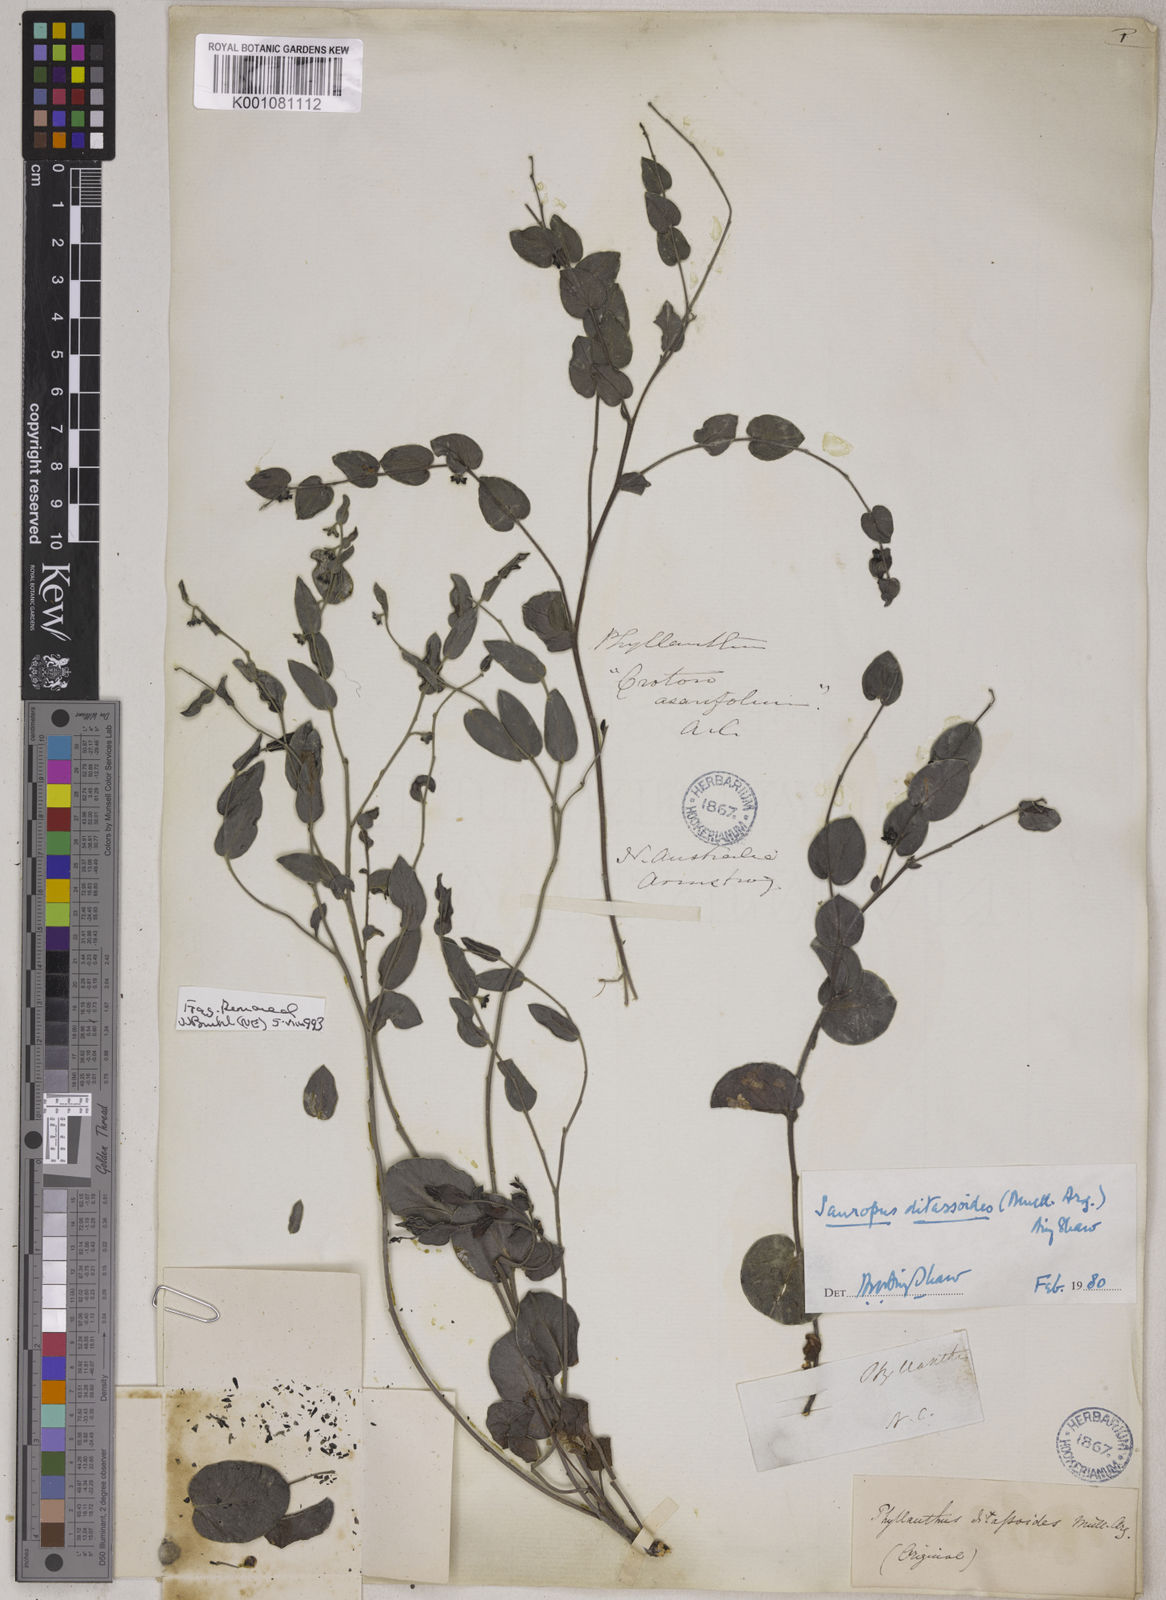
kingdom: Animalia
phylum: Chordata
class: Amphibia
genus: Sauropus
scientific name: Sauropus
